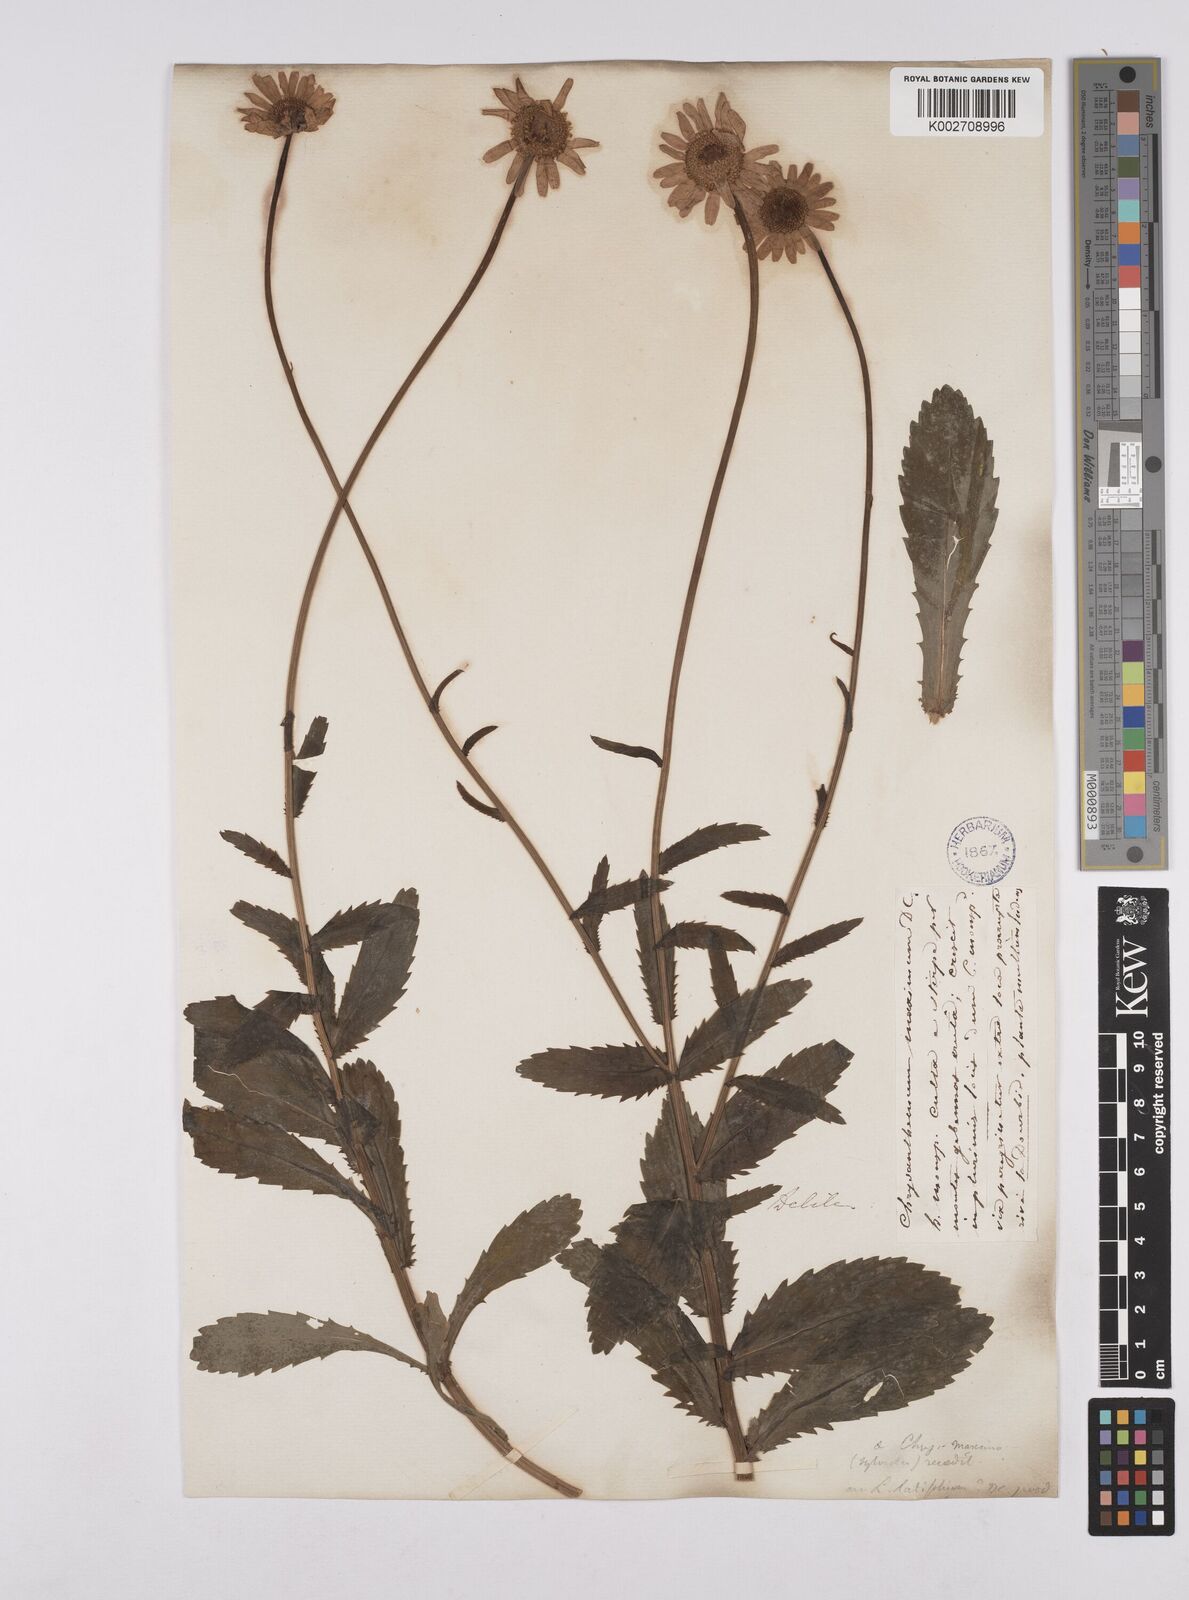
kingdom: Plantae
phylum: Tracheophyta
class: Magnoliopsida
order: Asterales
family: Asteraceae
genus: Leucanthemum
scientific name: Leucanthemum vulgare
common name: Oxeye daisy
